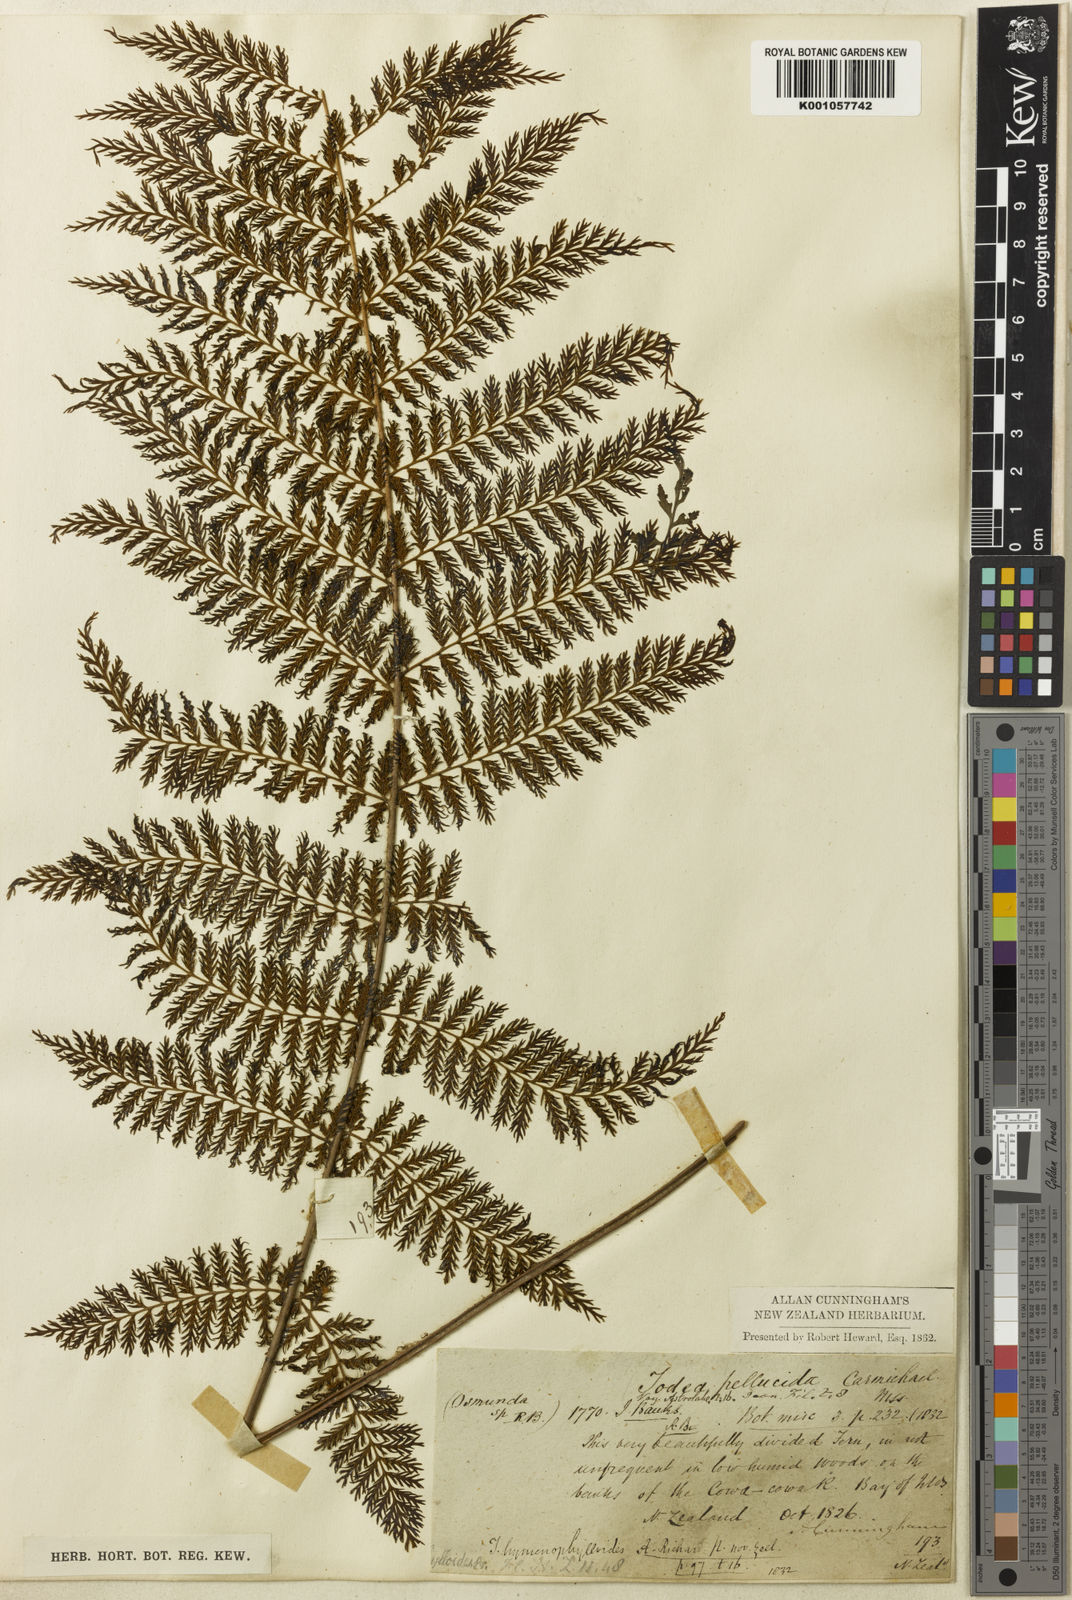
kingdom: Plantae
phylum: Tracheophyta
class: Polypodiopsida
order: Osmundales
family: Osmundaceae
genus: Leptopteris
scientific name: Leptopteris hymenophylloides
